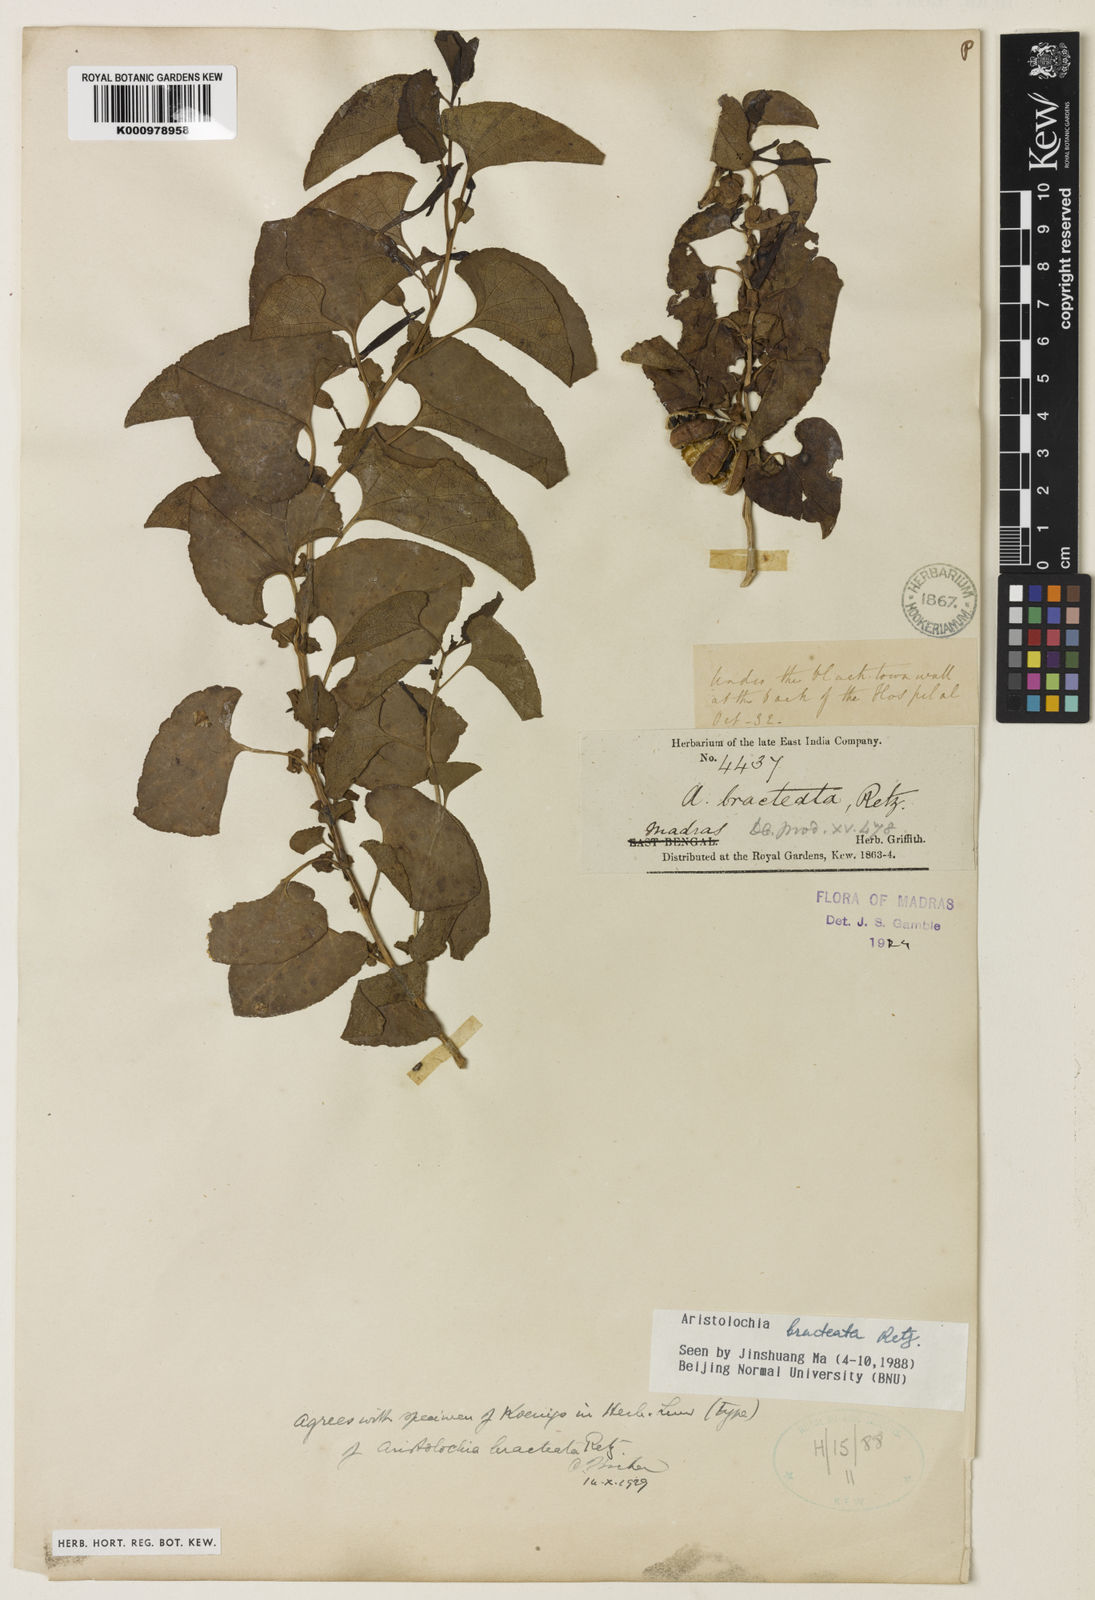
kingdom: Plantae
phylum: Tracheophyta
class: Magnoliopsida
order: Piperales
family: Aristolochiaceae
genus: Aristolochia
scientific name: Aristolochia bracteolata
